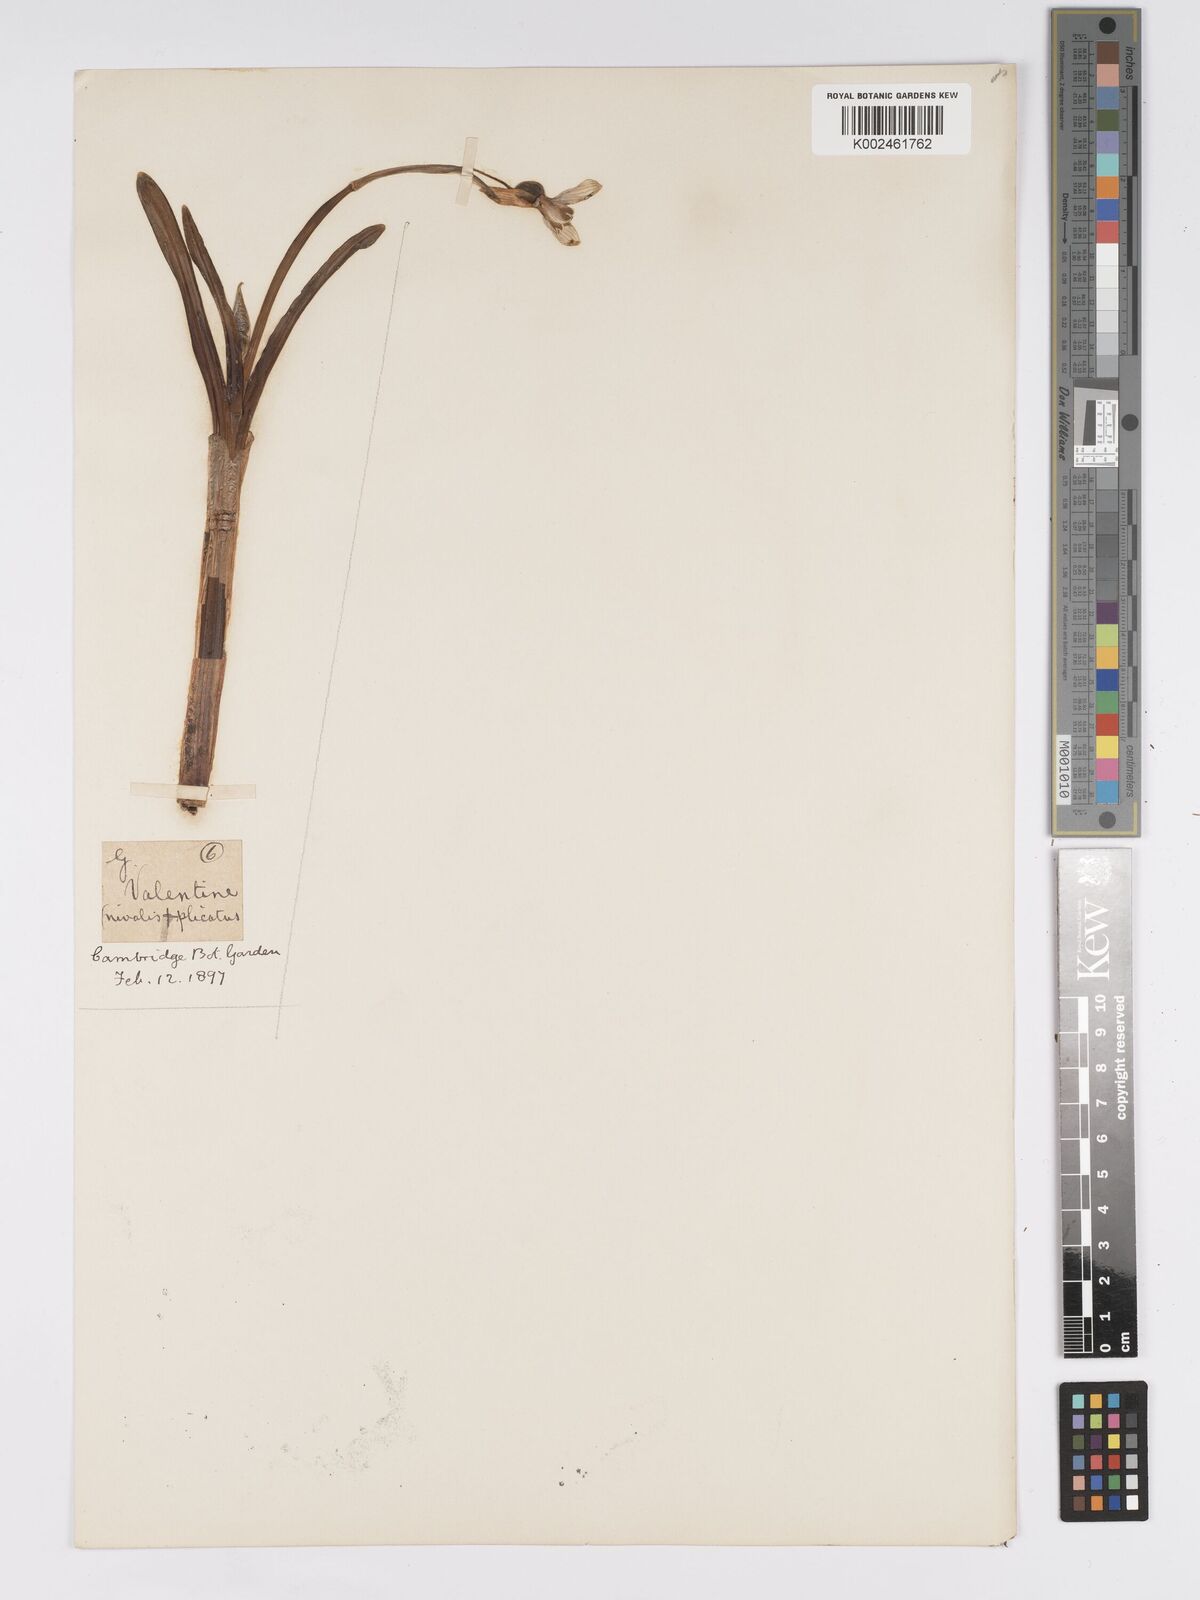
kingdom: Plantae
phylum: Tracheophyta
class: Liliopsida
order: Asparagales
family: Amaryllidaceae
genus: Galanthus
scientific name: Galanthus valentinei
